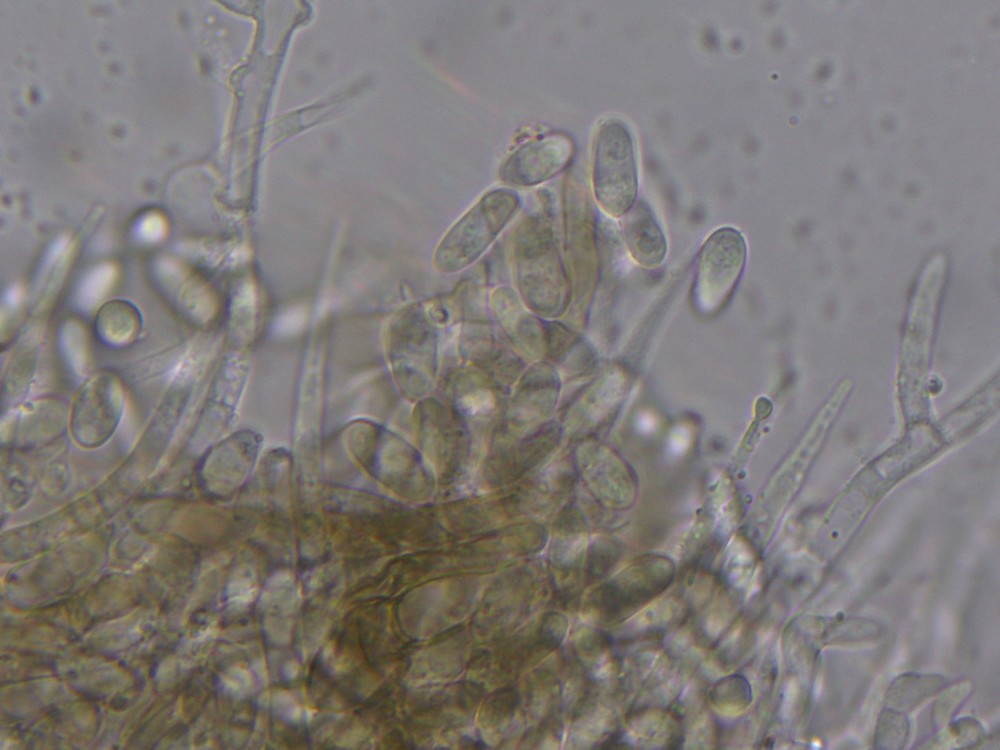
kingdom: Fungi
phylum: Ascomycota
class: Sordariomycetes
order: Hypocreales
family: Hypocreaceae
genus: Hypomyces
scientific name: Hypomyces papulasporae
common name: jordtunge-snylteskorpe
